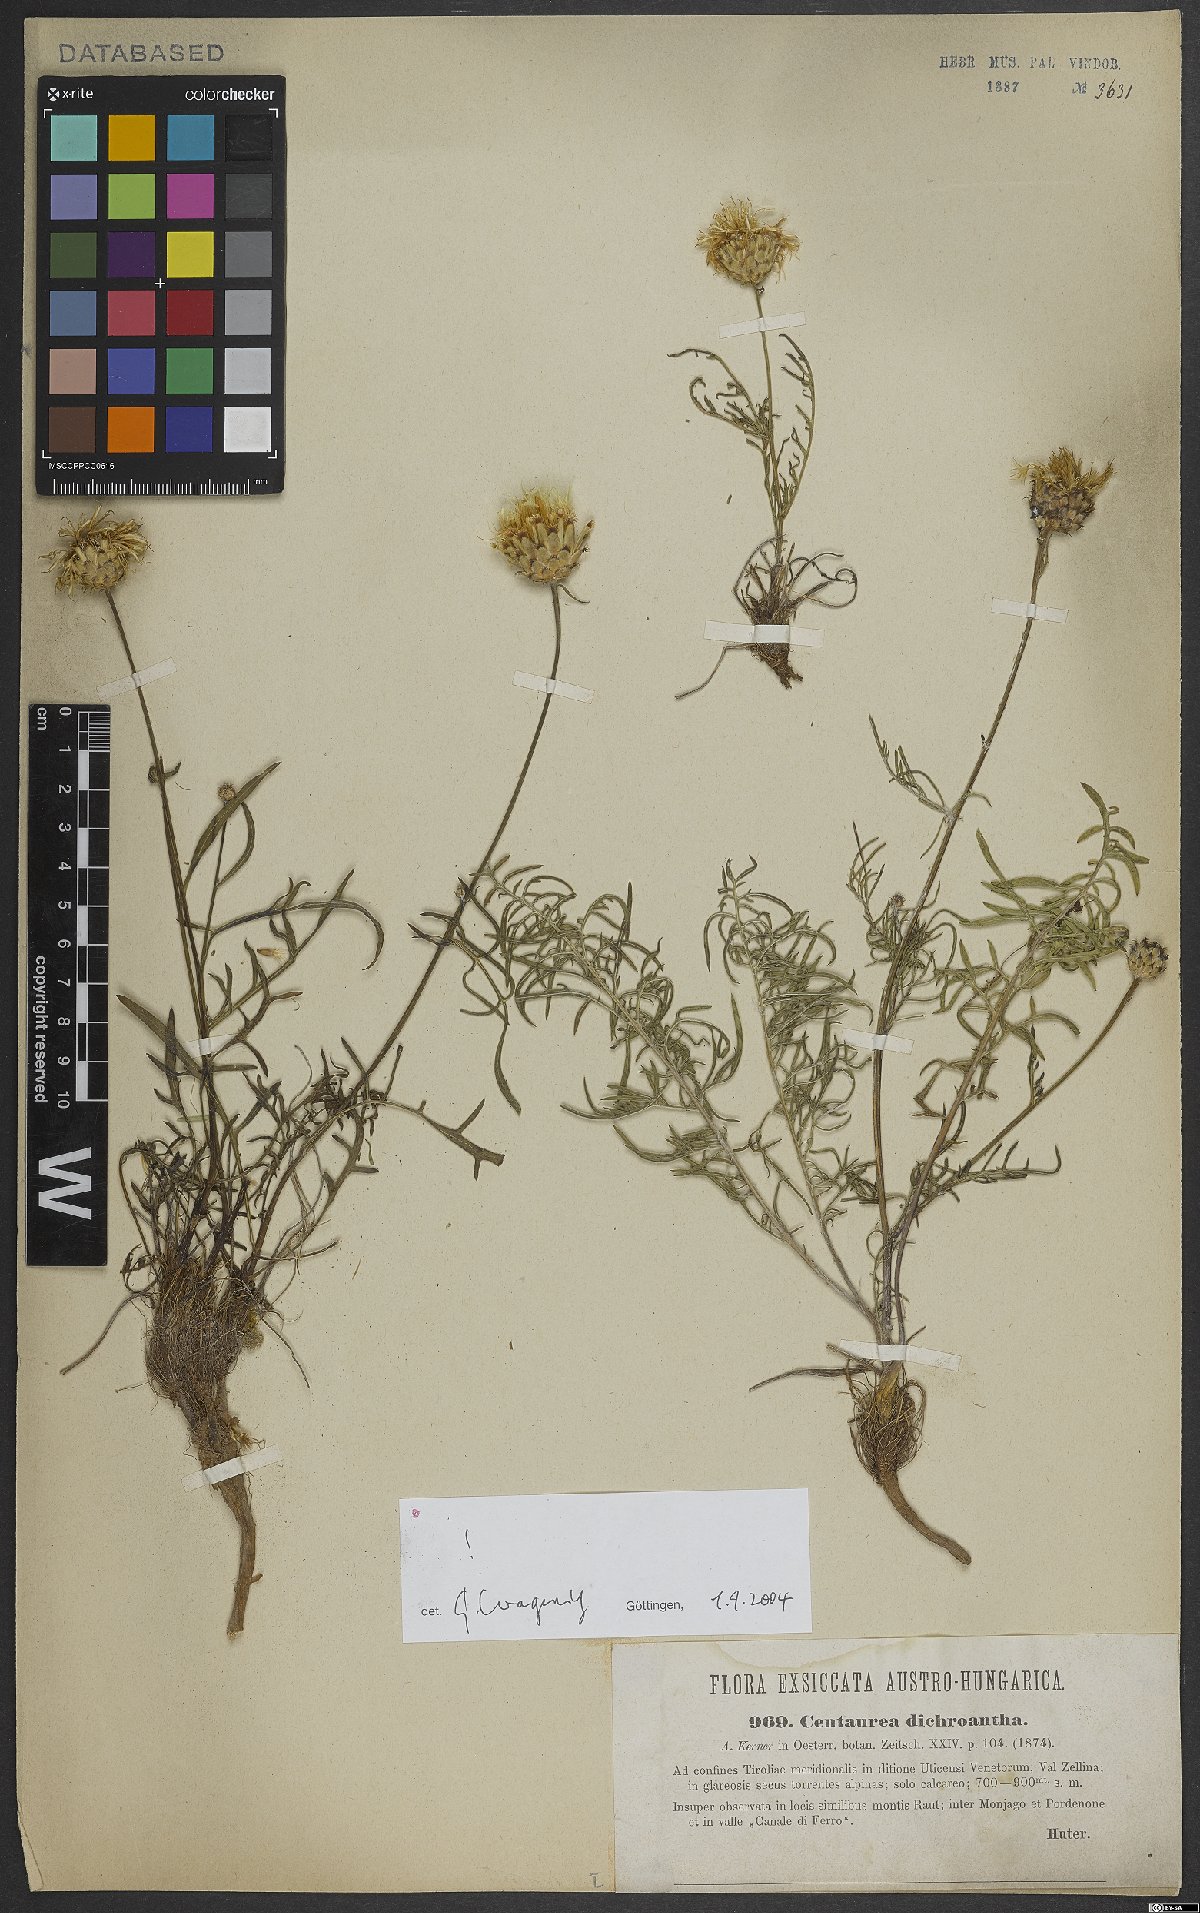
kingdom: Plantae
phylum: Tracheophyta
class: Magnoliopsida
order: Asterales
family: Asteraceae
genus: Centaurea
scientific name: Centaurea dichroantha
